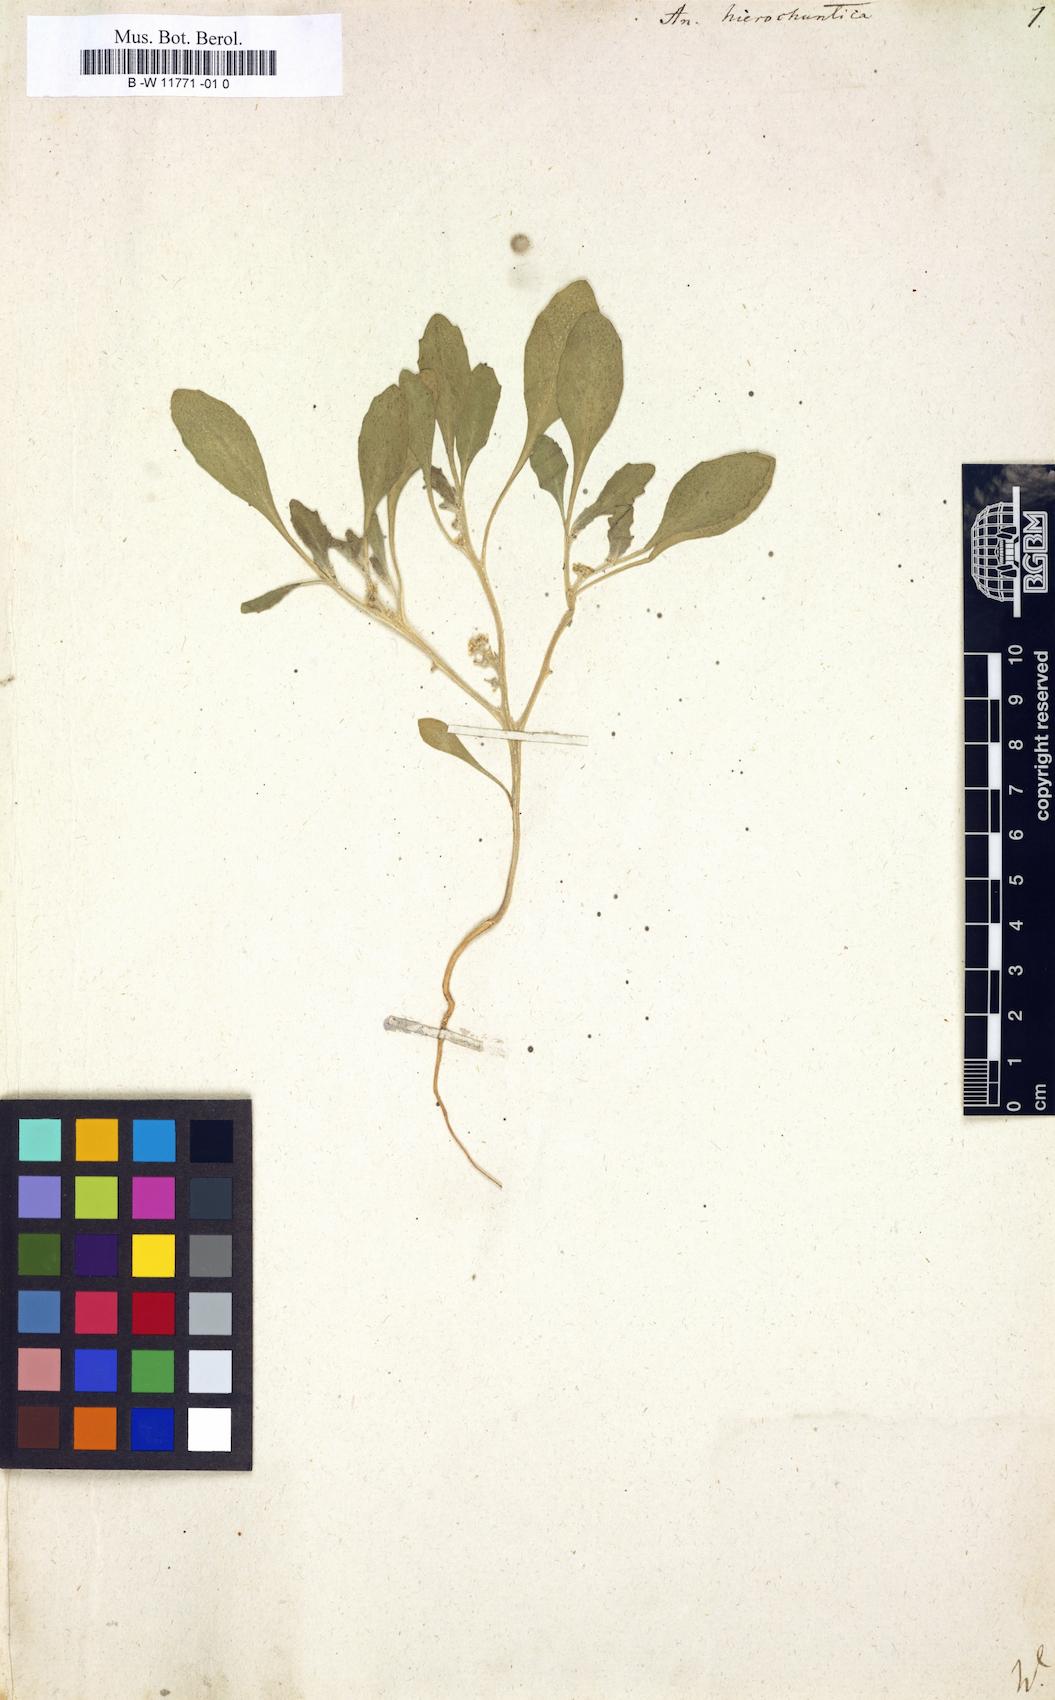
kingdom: Plantae
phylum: Tracheophyta
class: Magnoliopsida
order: Brassicales
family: Brassicaceae
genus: Anastatica
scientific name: Anastatica hierochuntica
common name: Rose-of-jericho
